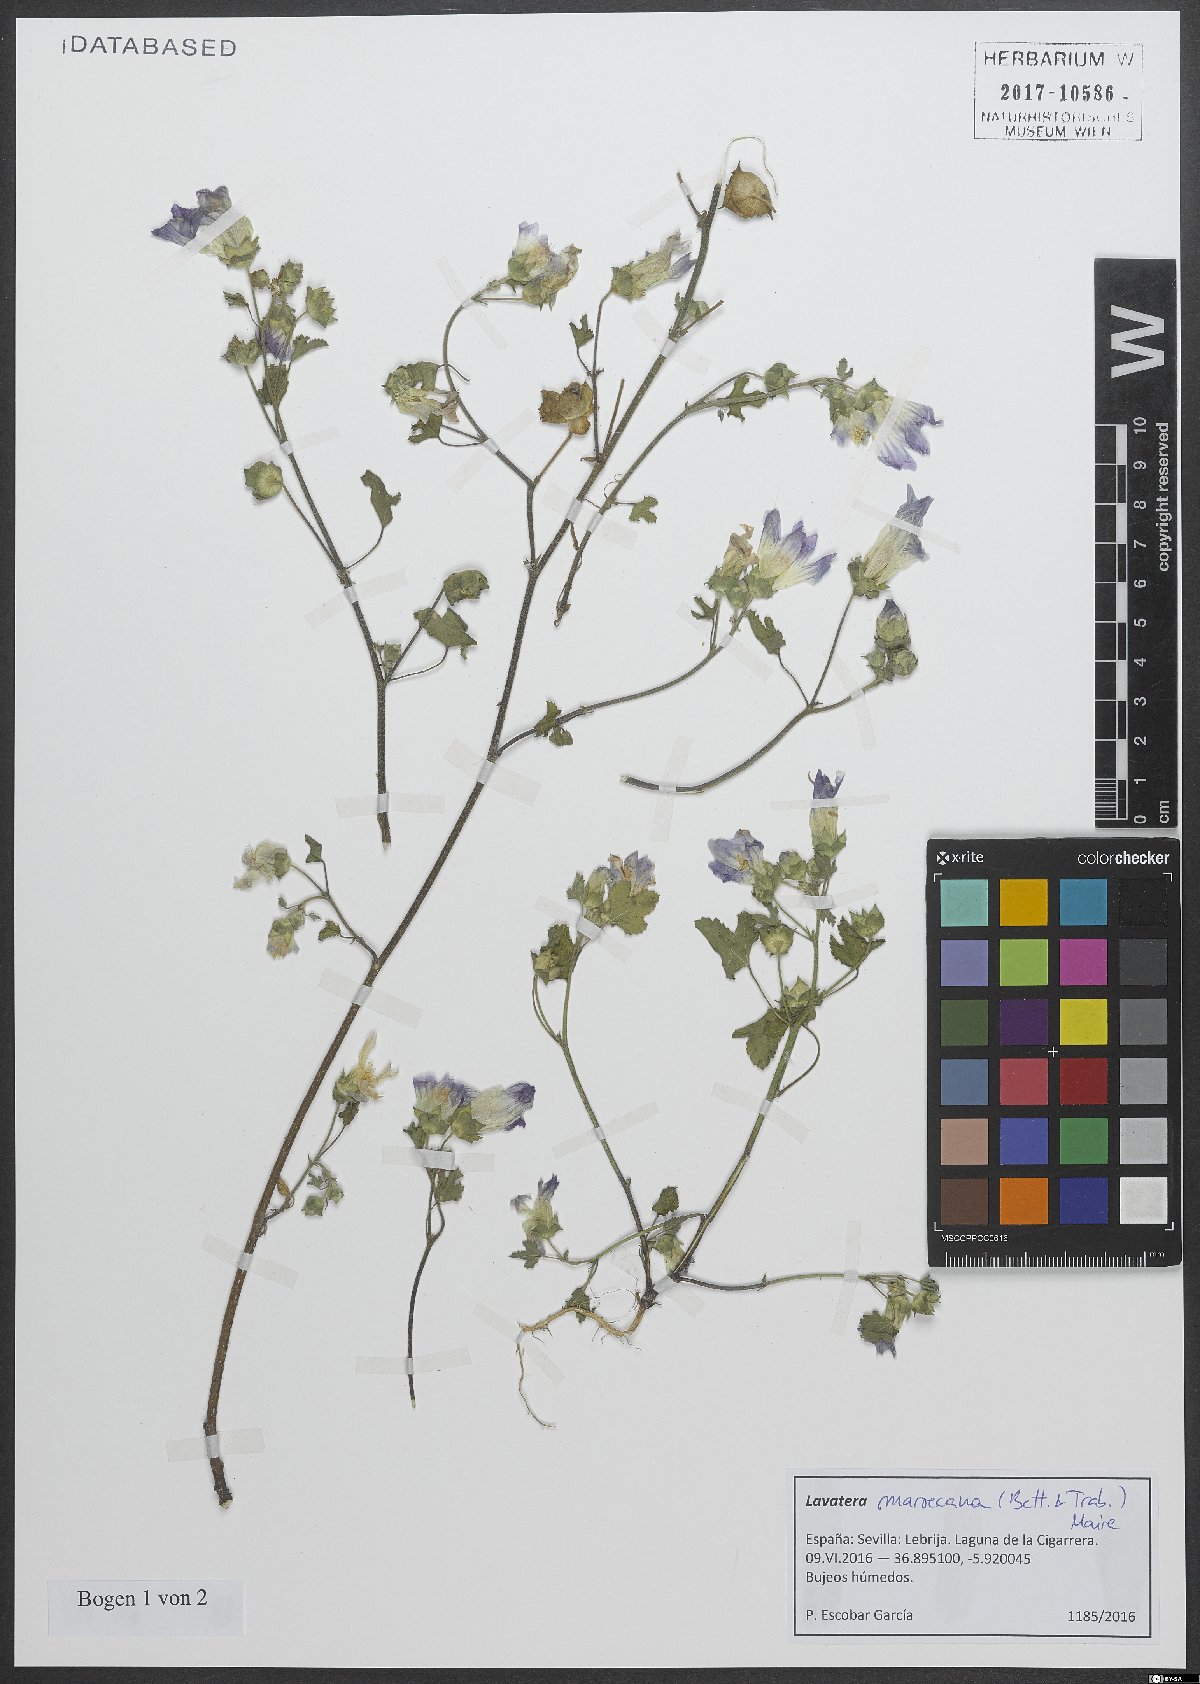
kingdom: Plantae
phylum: Tracheophyta
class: Magnoliopsida
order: Malvales
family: Malvaceae
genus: Malva
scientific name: Malva maroccana
